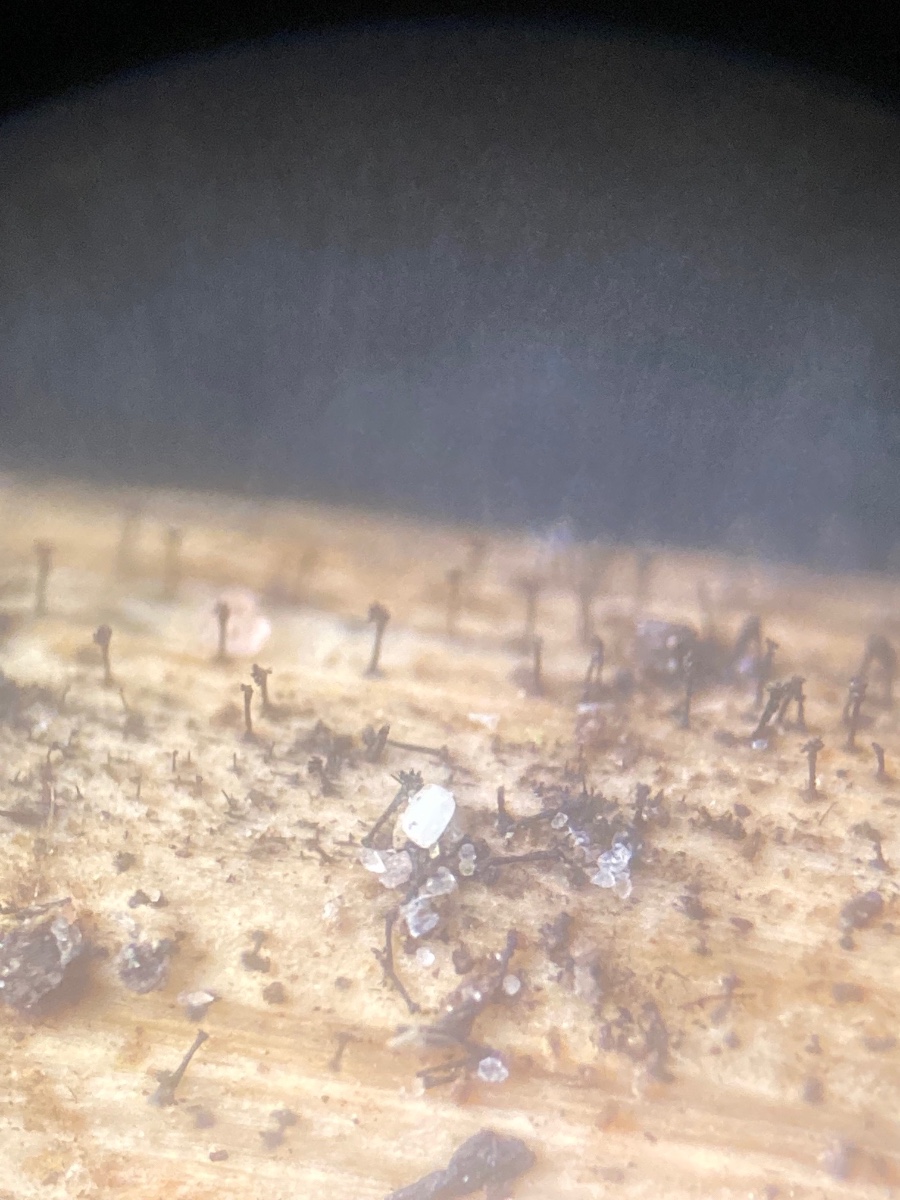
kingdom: Fungi
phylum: Ascomycota
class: Dothideomycetes
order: Pleosporales
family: Melanommataceae
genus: Phragmocephala
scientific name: Phragmocephala atra
